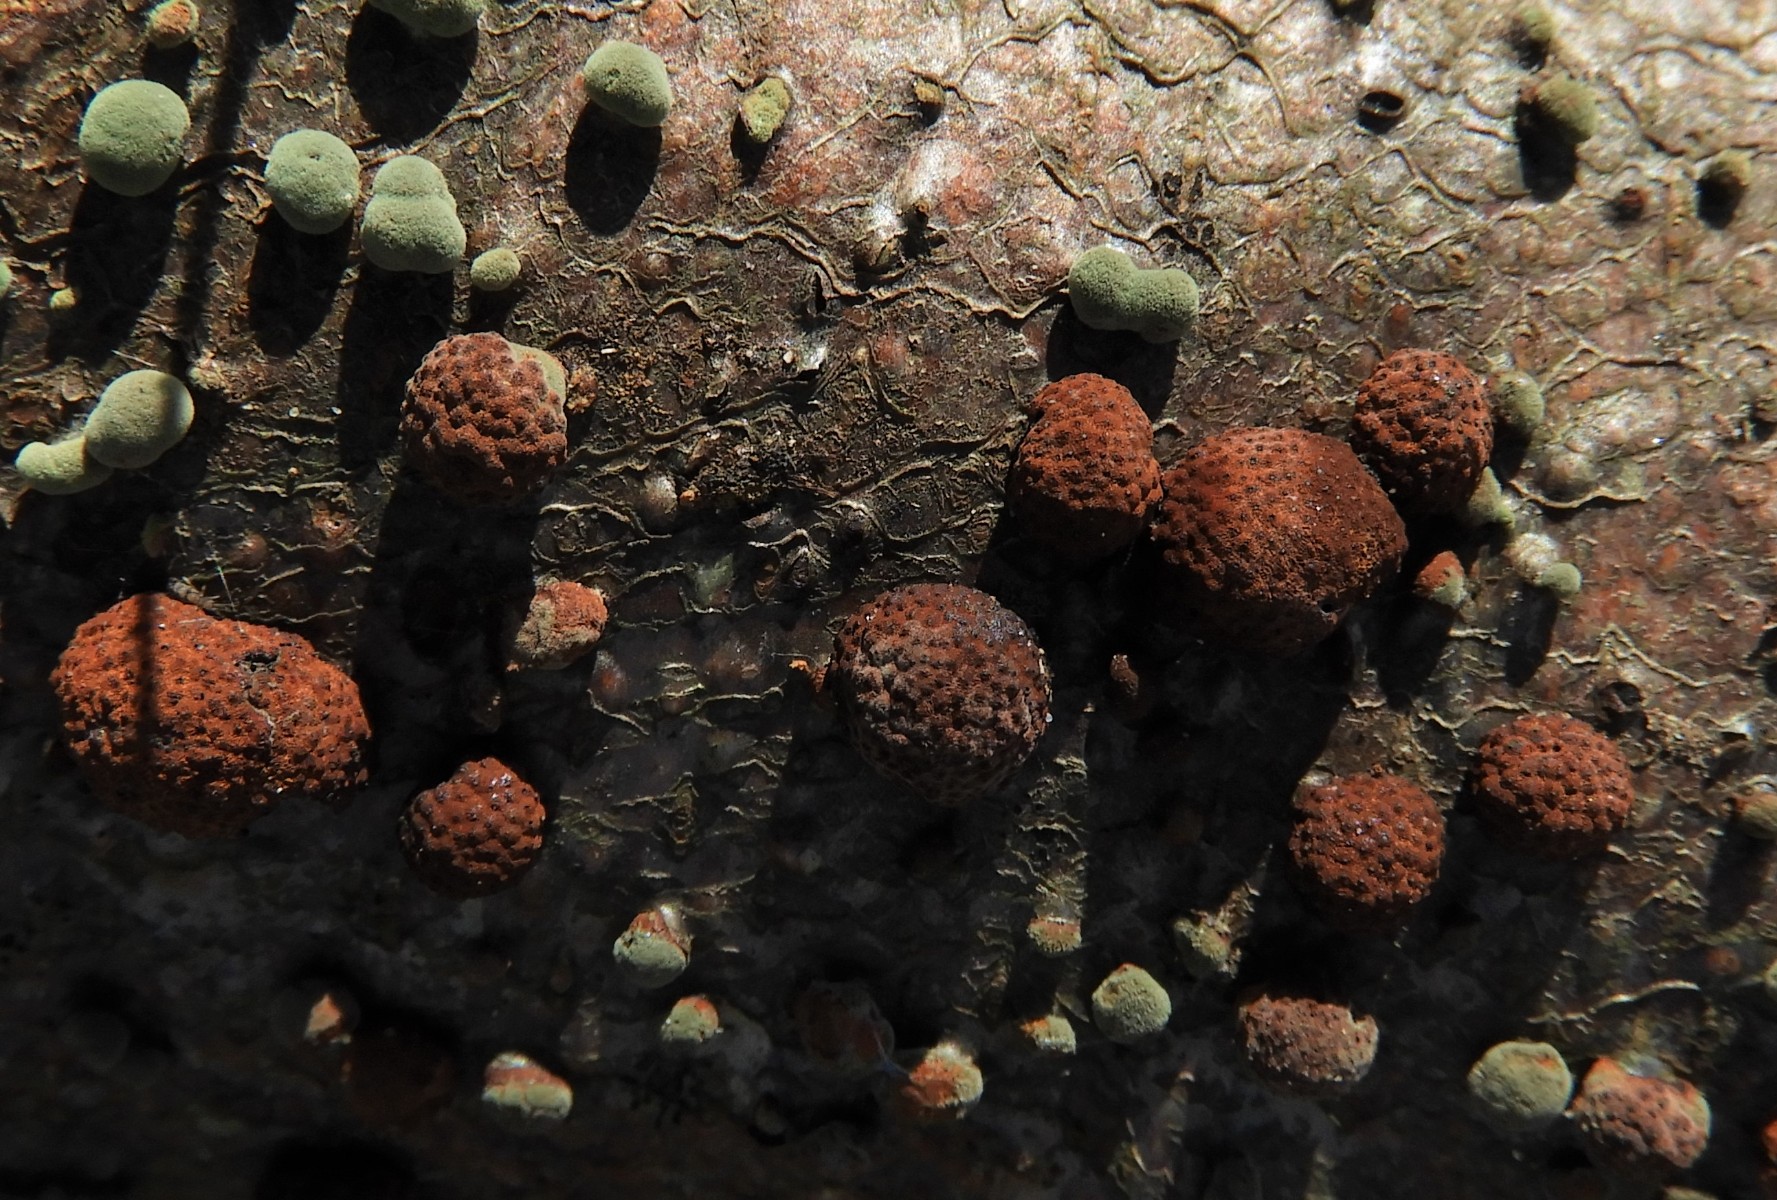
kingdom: Fungi
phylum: Ascomycota
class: Sordariomycetes
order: Xylariales
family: Hypoxylaceae
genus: Hypoxylon
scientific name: Hypoxylon fragiforme
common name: kuljordbær
